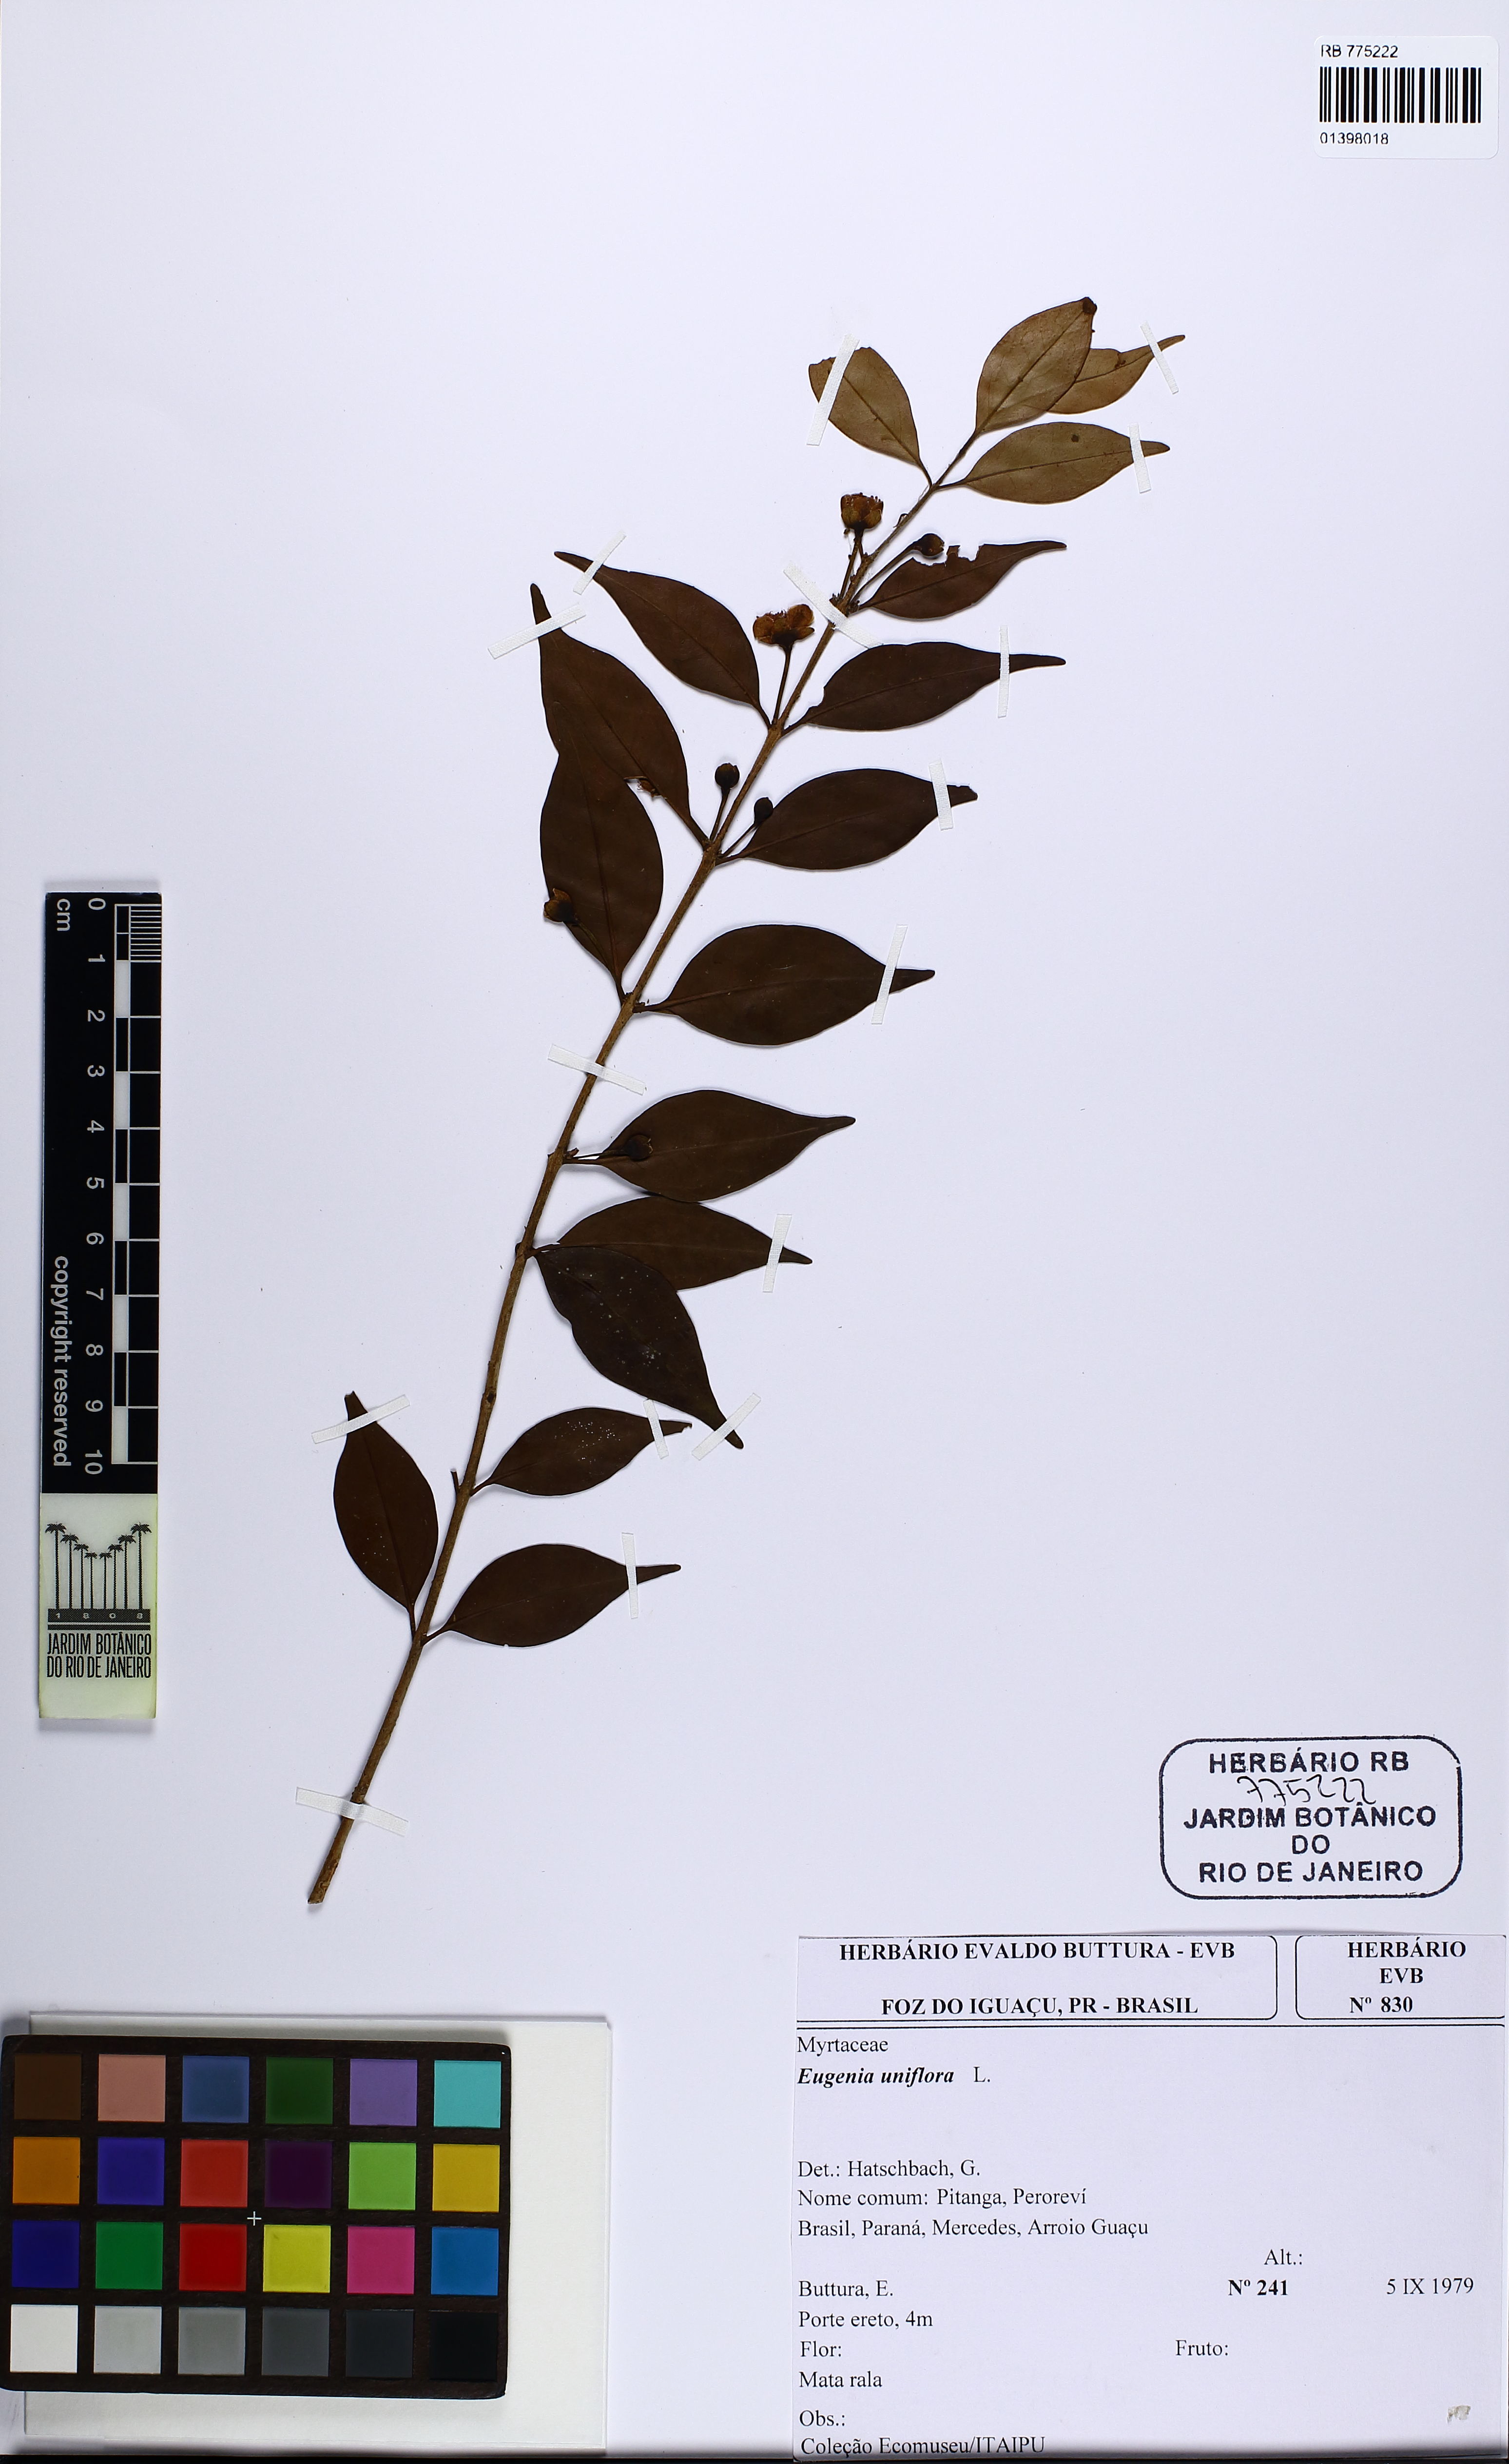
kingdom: Plantae
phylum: Tracheophyta
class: Magnoliopsida
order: Myrtales
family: Myrtaceae
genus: Eugenia
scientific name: Eugenia uniflora
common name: Surinam cherry
